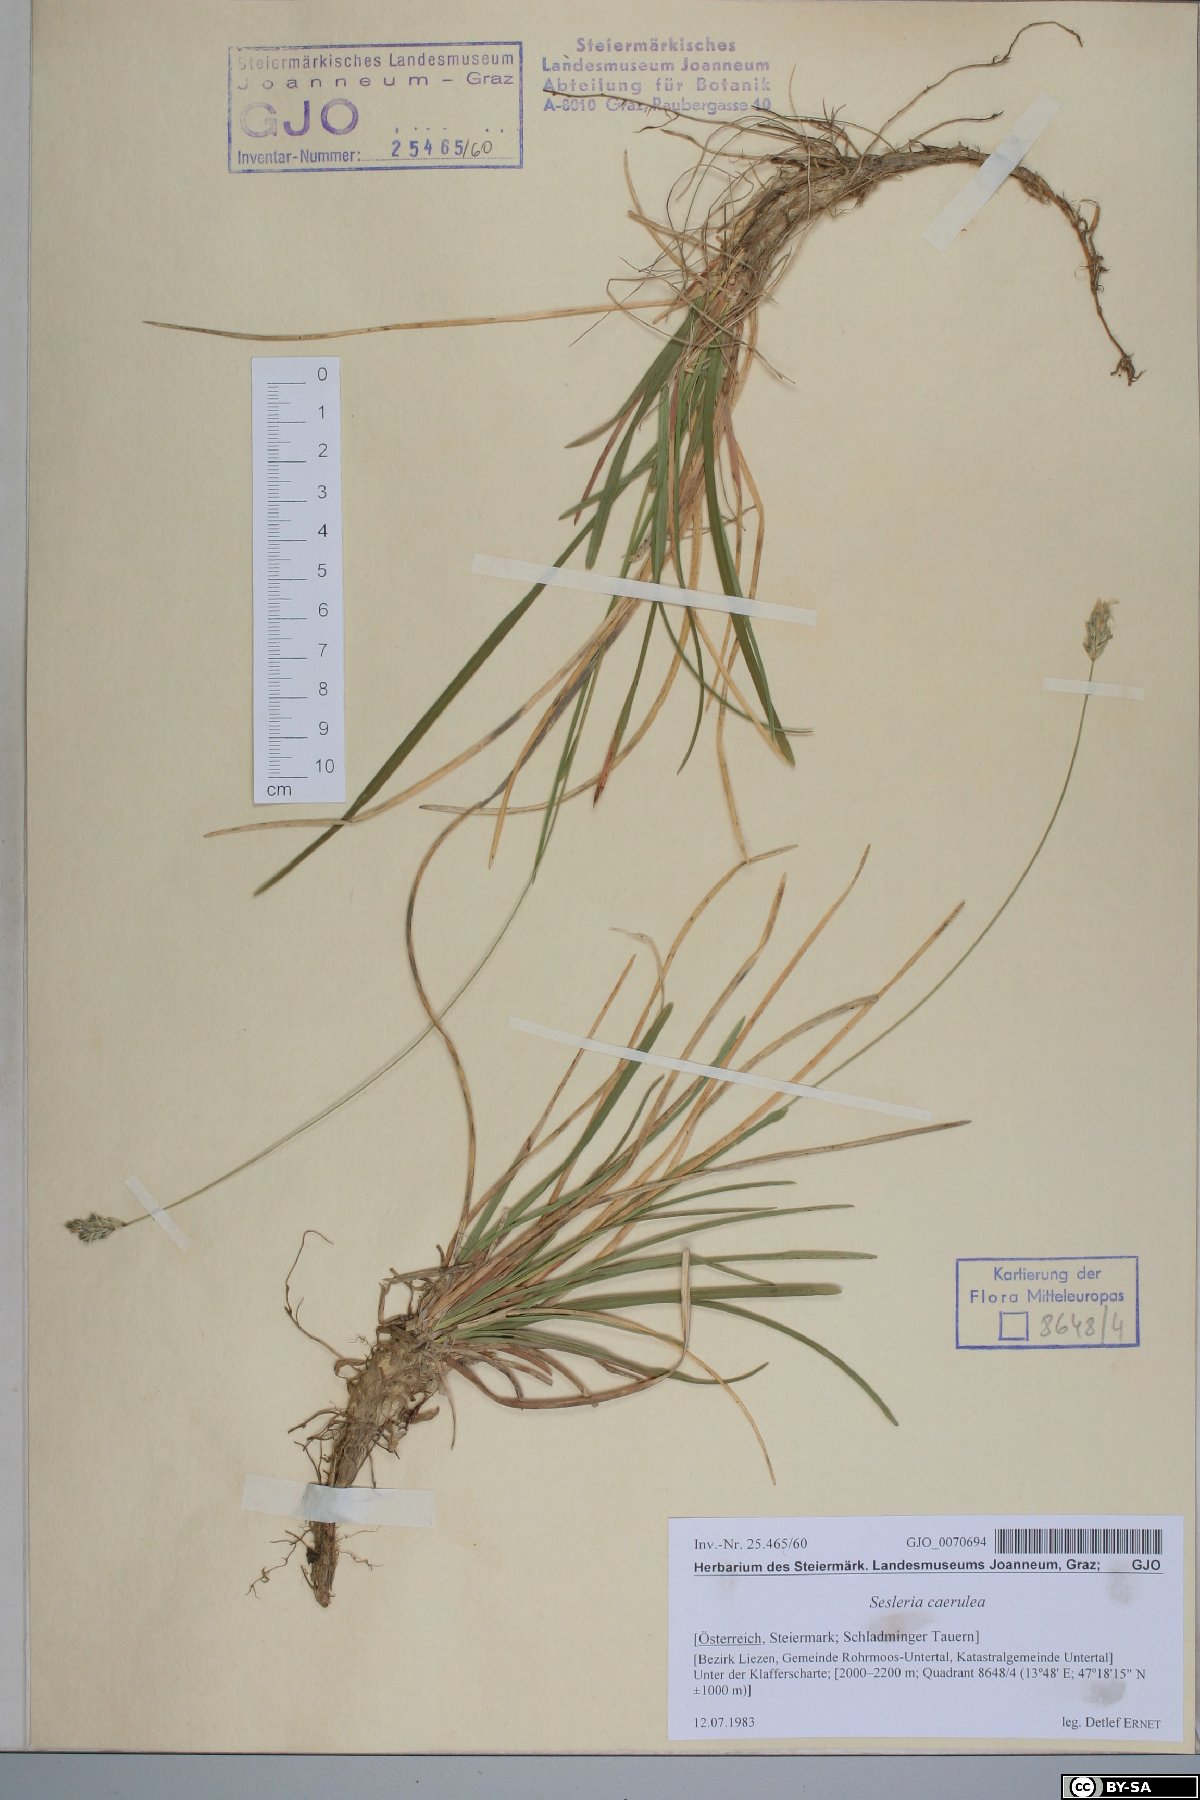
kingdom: Plantae
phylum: Tracheophyta
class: Liliopsida
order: Poales
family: Poaceae
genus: Sesleria
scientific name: Sesleria caerulea
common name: Blue moor-grass
